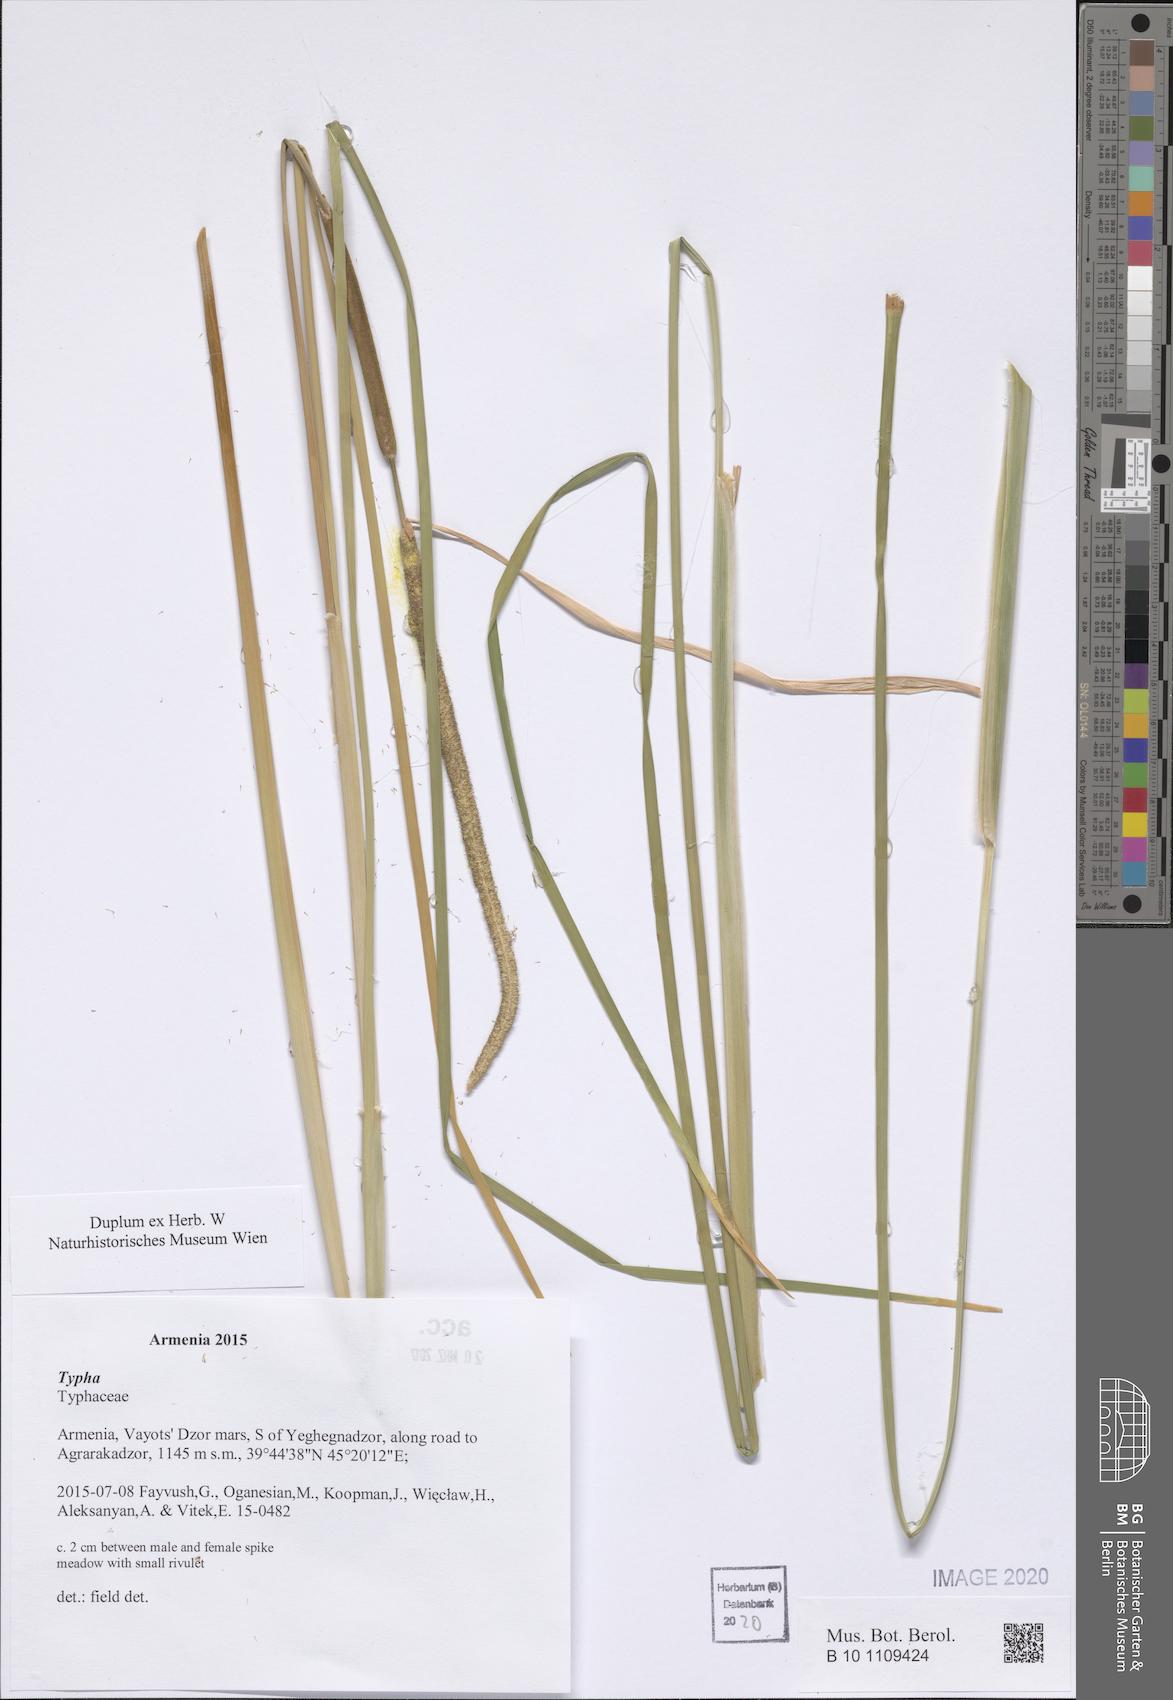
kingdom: Plantae
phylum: Tracheophyta
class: Liliopsida
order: Poales
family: Typhaceae
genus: Typha
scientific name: Typha
